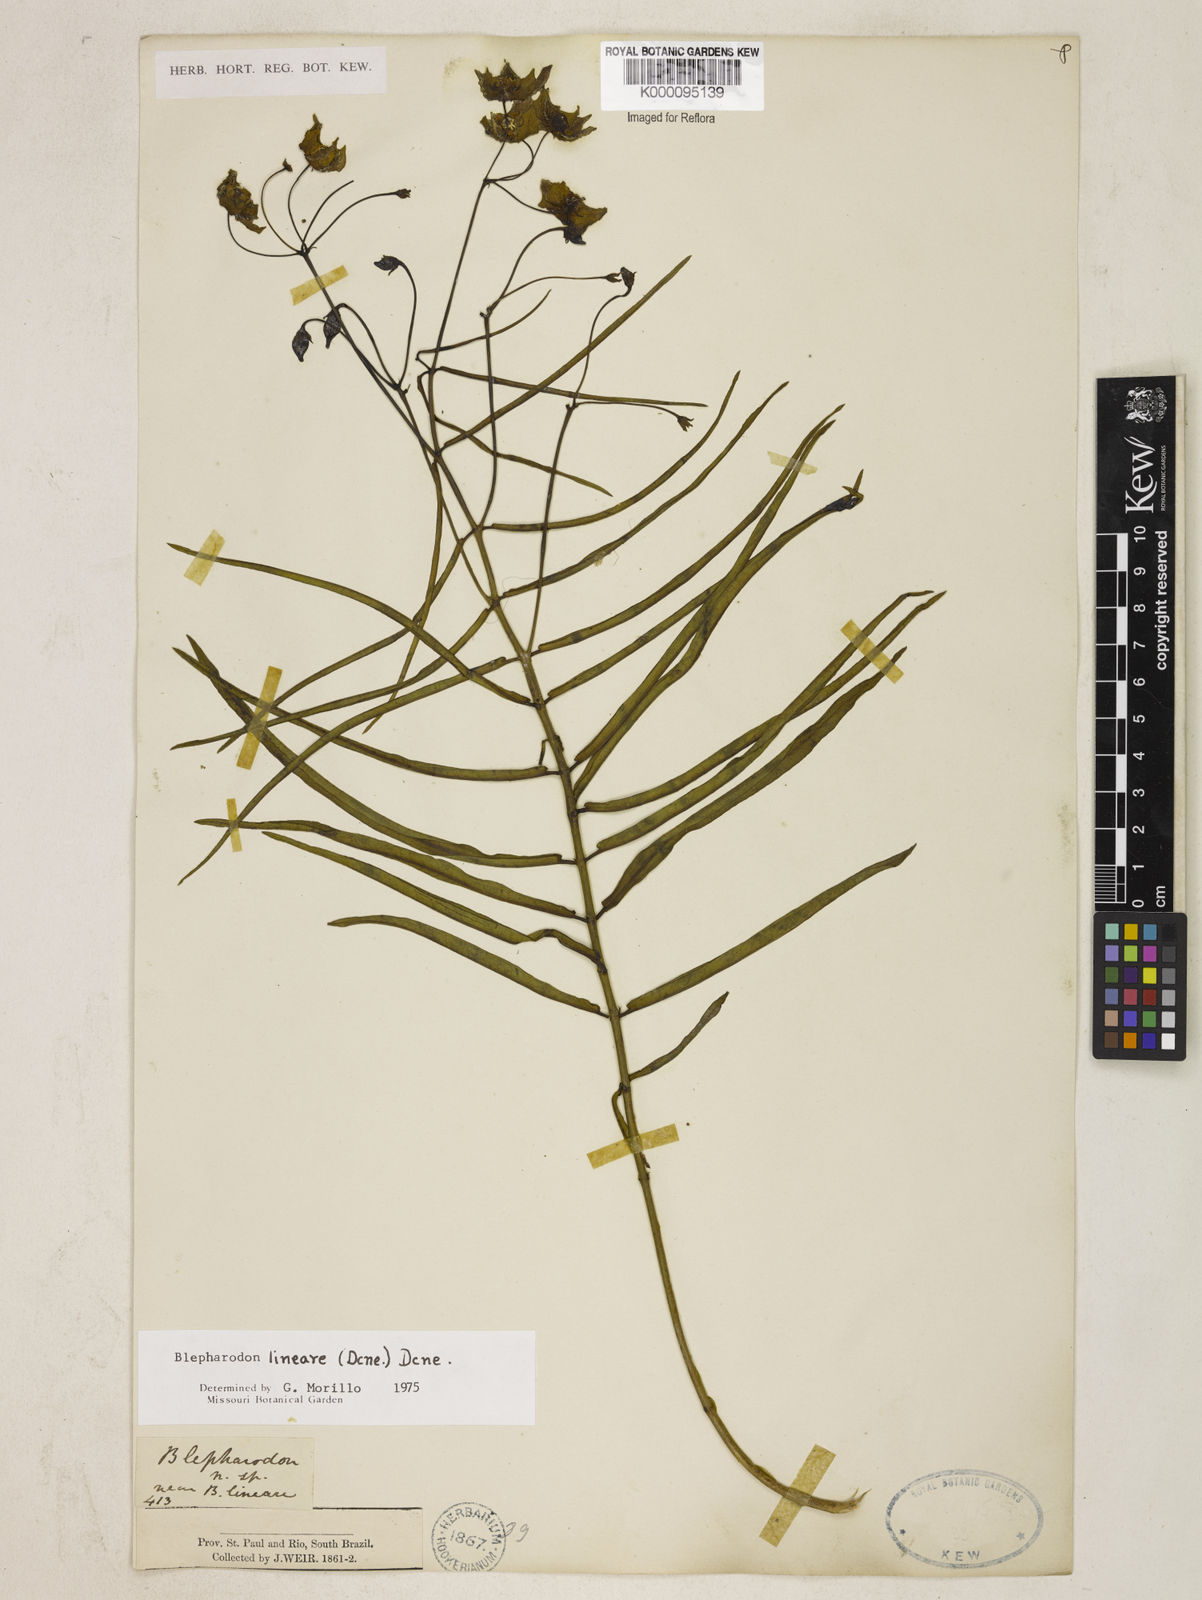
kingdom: Plantae
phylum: Tracheophyta
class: Magnoliopsida
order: Gentianales
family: Apocynaceae
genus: Blepharodon
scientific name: Blepharodon lineare
